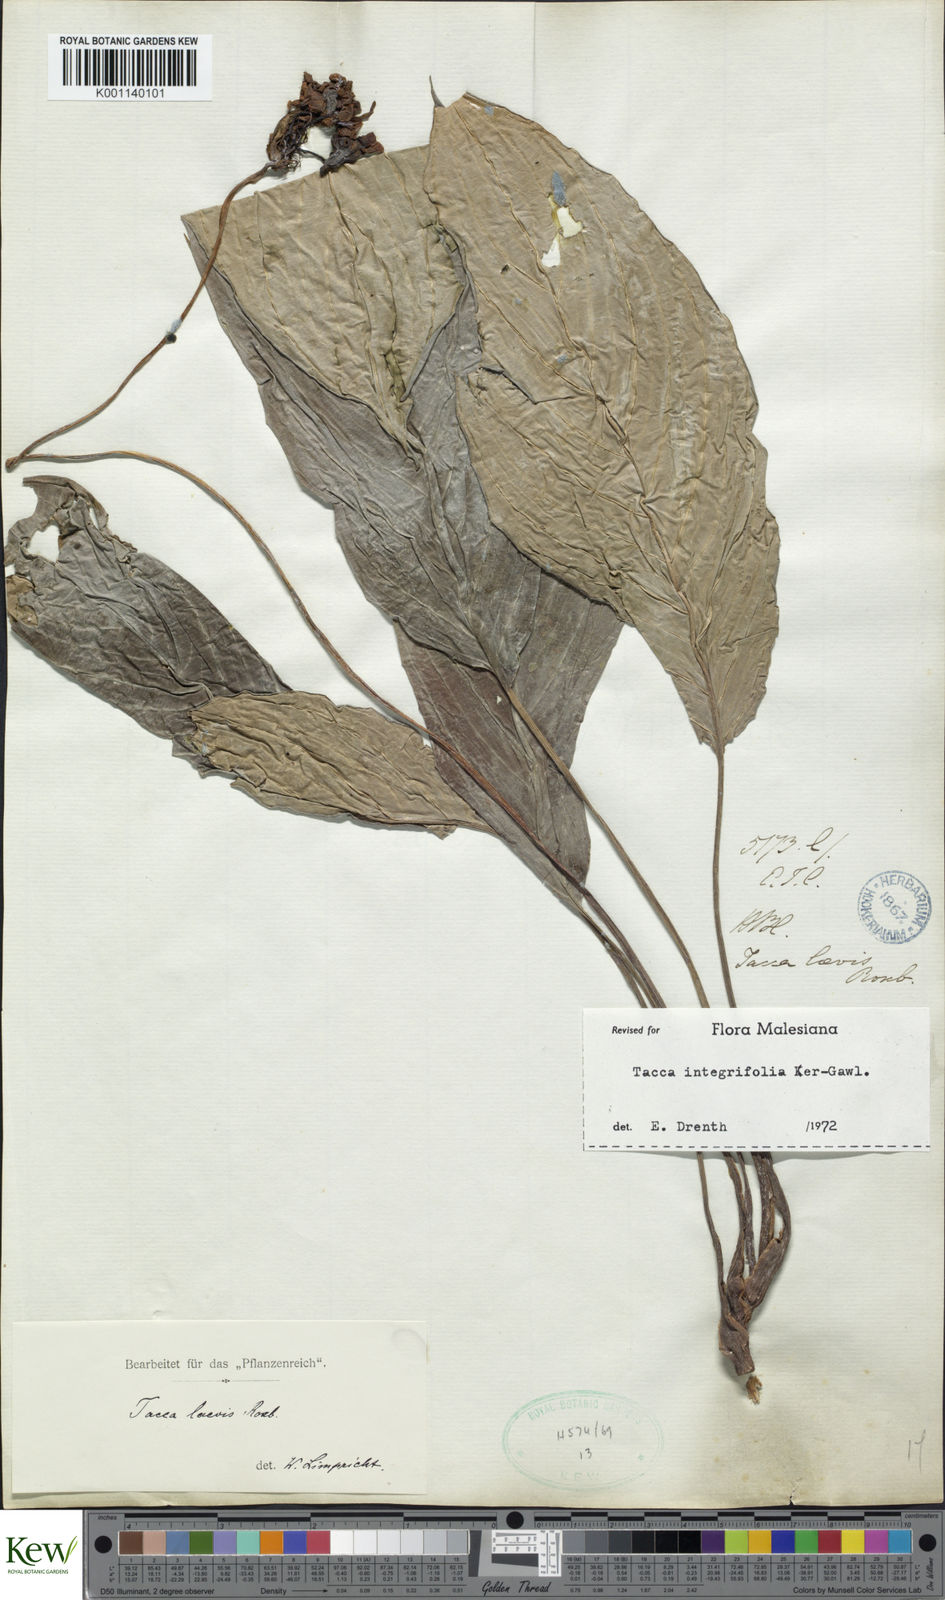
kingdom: Plantae
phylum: Tracheophyta
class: Liliopsida
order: Dioscoreales
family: Dioscoreaceae
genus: Tacca
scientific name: Tacca
